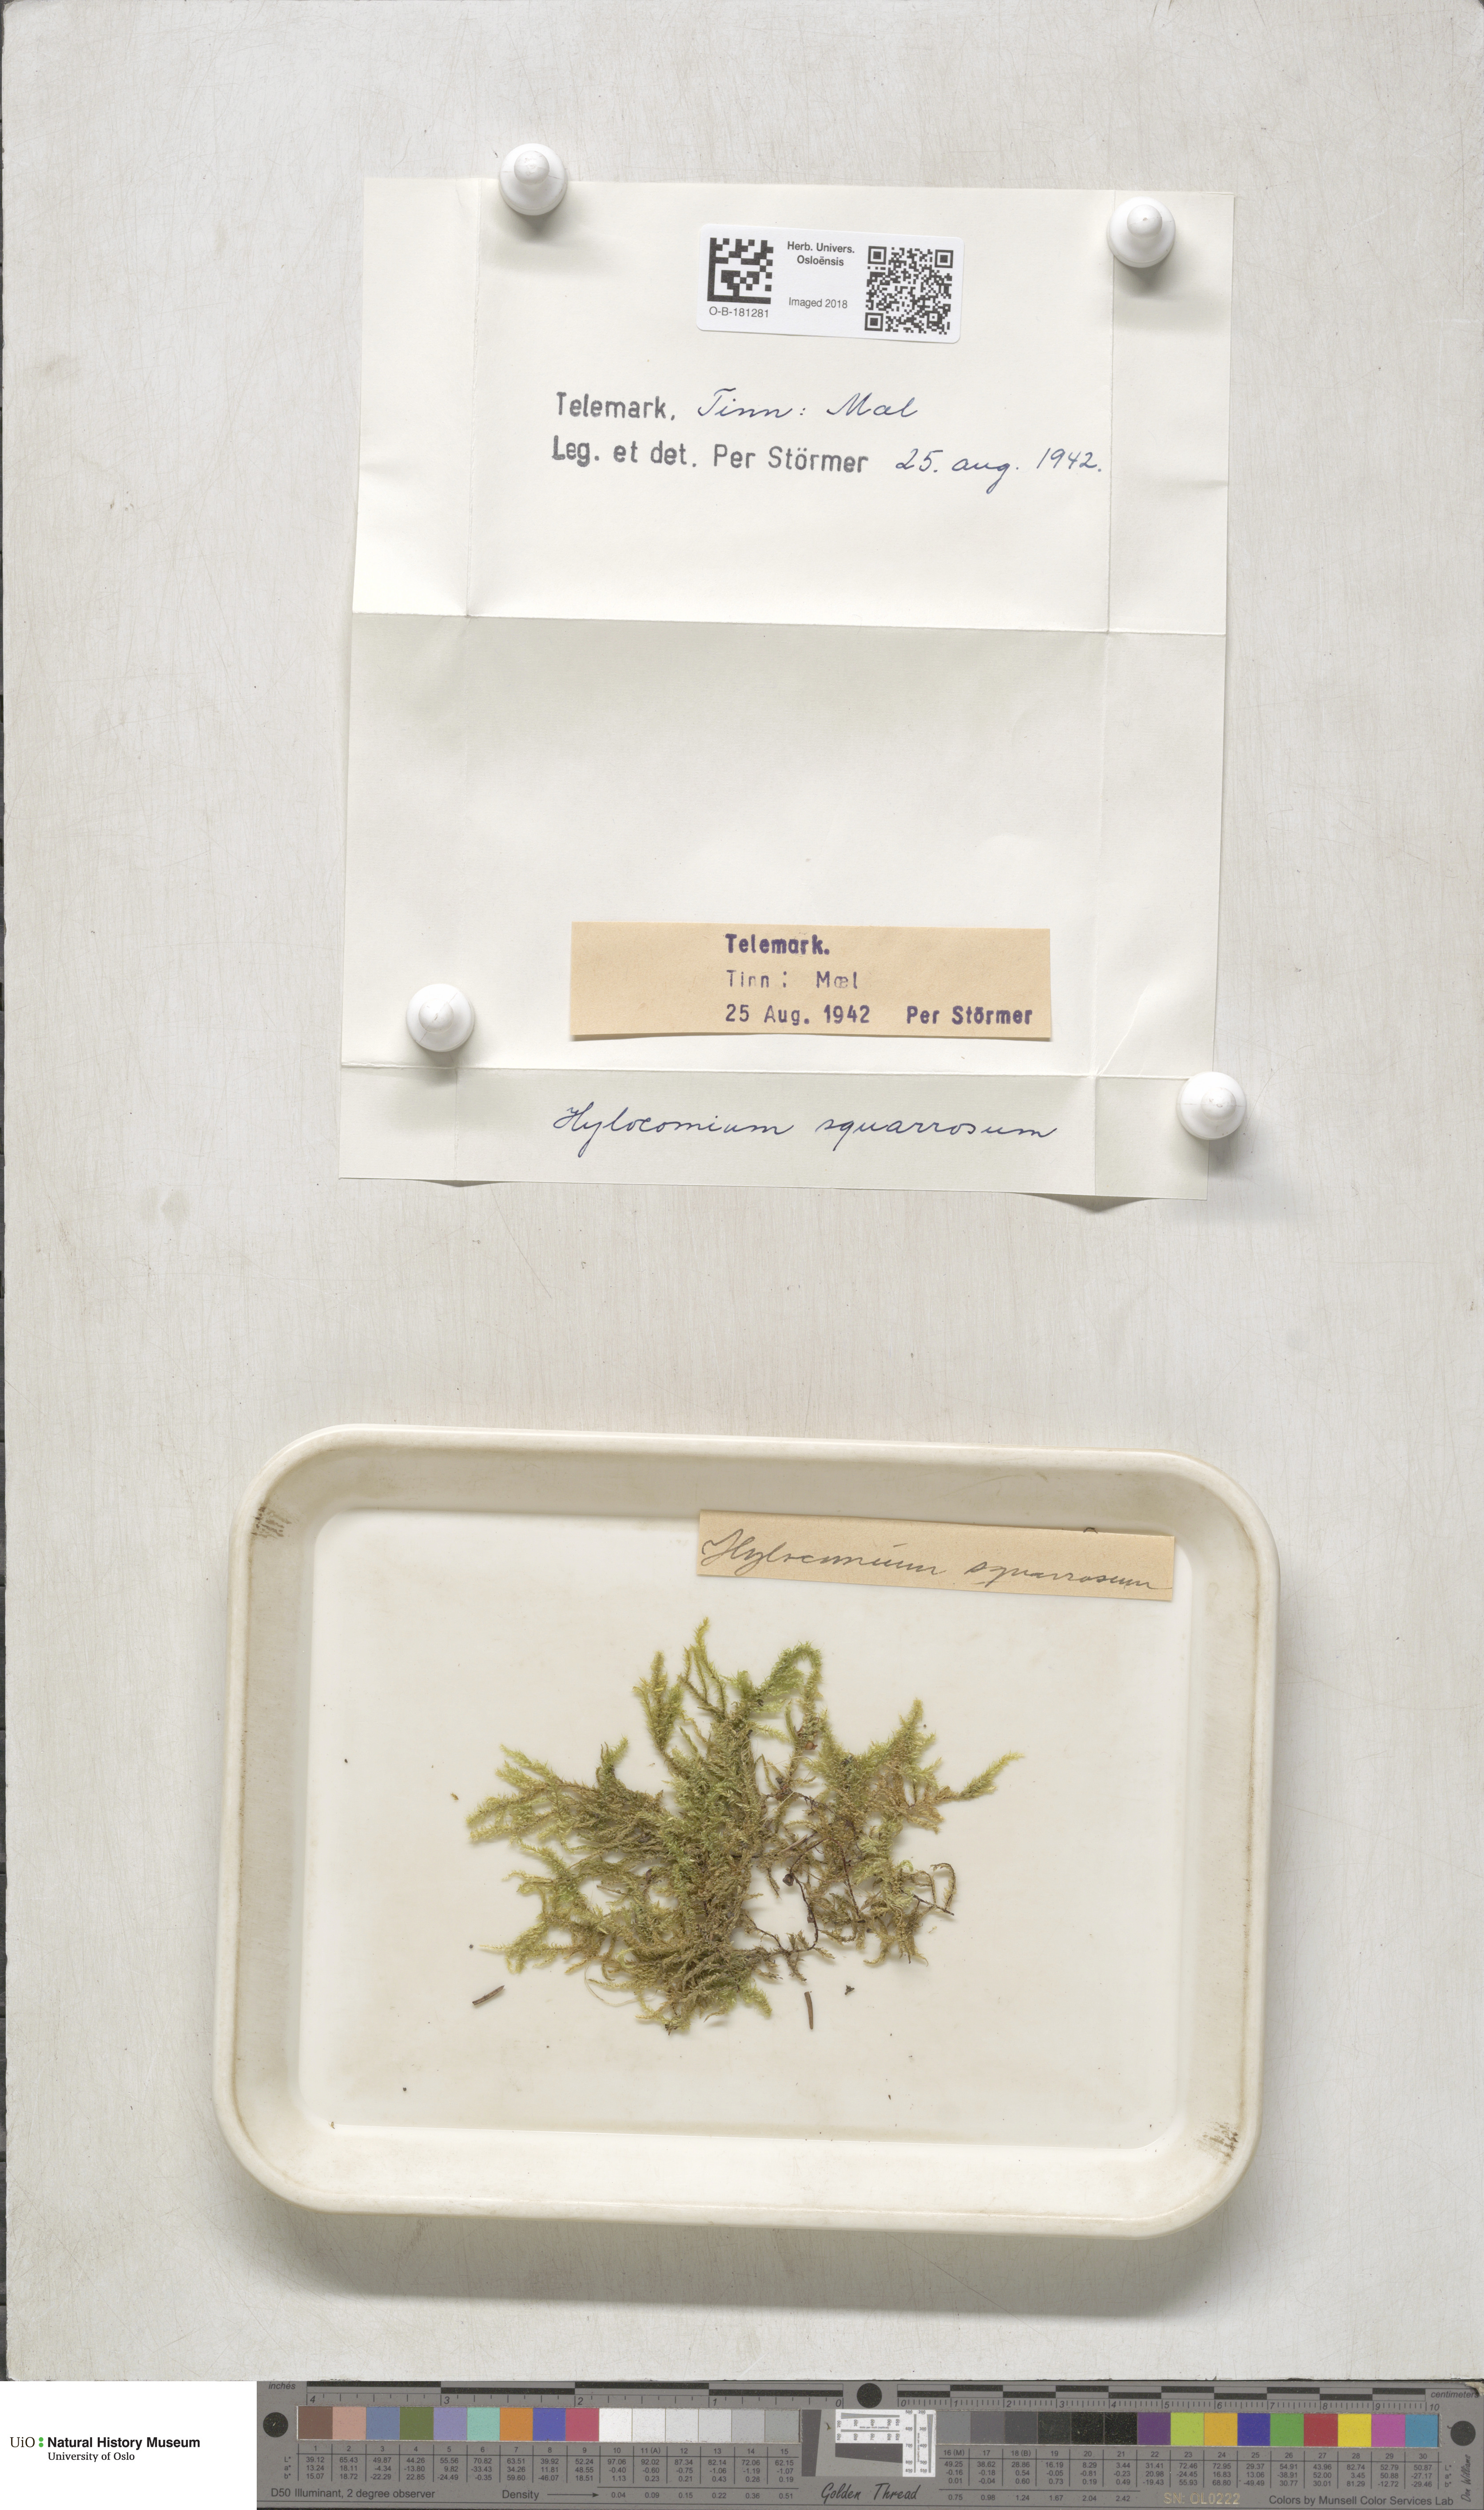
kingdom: Plantae
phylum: Bryophyta
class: Bryopsida
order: Hypnales
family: Hylocomiaceae
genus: Rhytidiadelphus
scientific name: Rhytidiadelphus squarrosus
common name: Springy turf-moss
